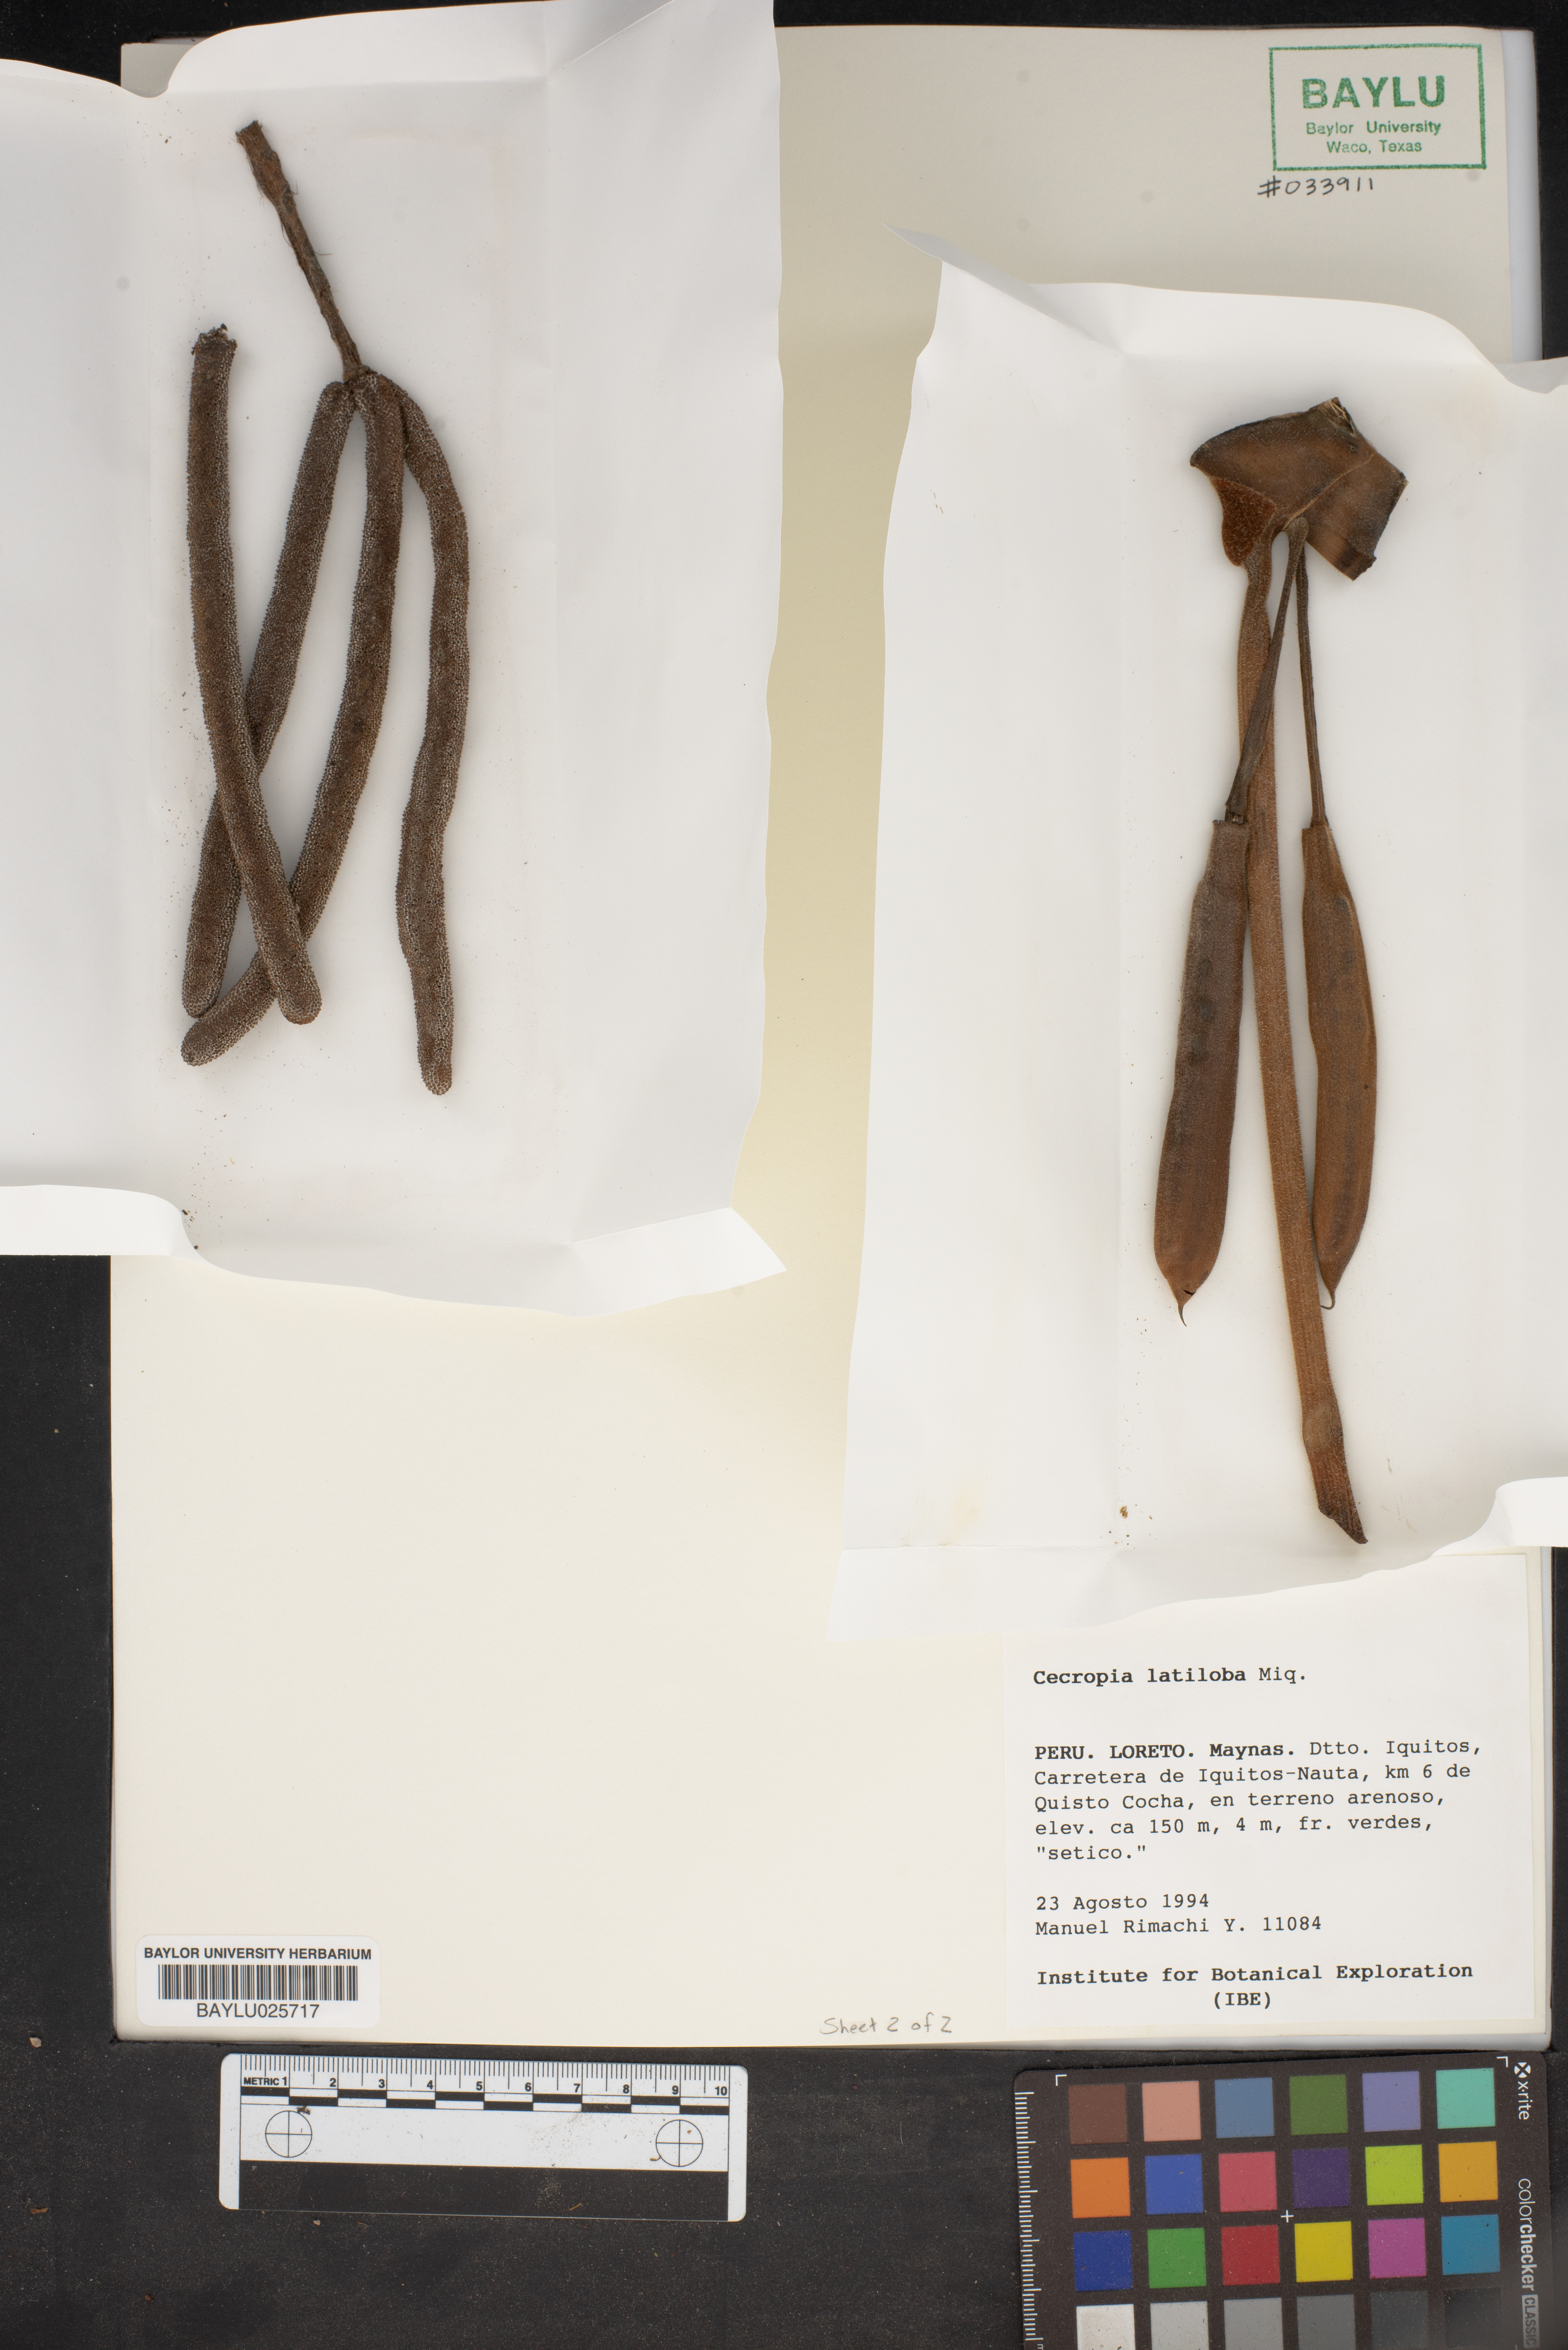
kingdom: Plantae
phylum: Tracheophyta
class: Magnoliopsida
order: Rosales
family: Urticaceae
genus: Cecropia
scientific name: Cecropia latiloba
